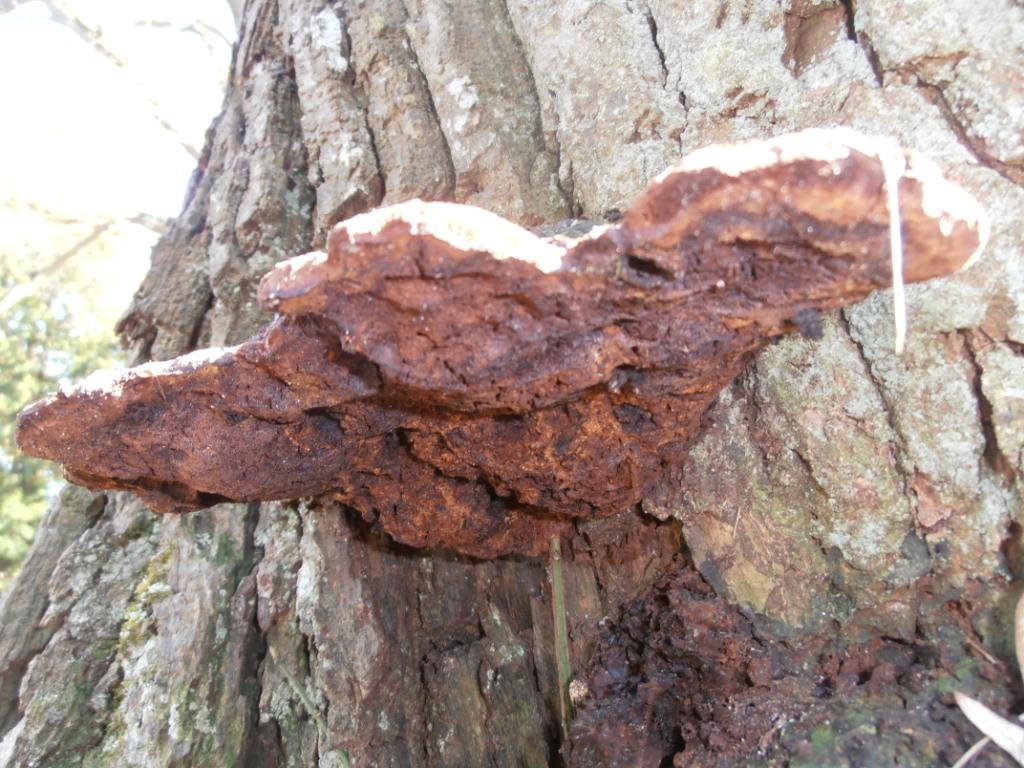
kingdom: Fungi
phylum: Basidiomycota
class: Agaricomycetes
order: Hymenochaetales
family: Hymenochaetaceae
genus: Pseudoinonotus
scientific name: Pseudoinonotus dryadeus
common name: ege-spejlporesvamp
